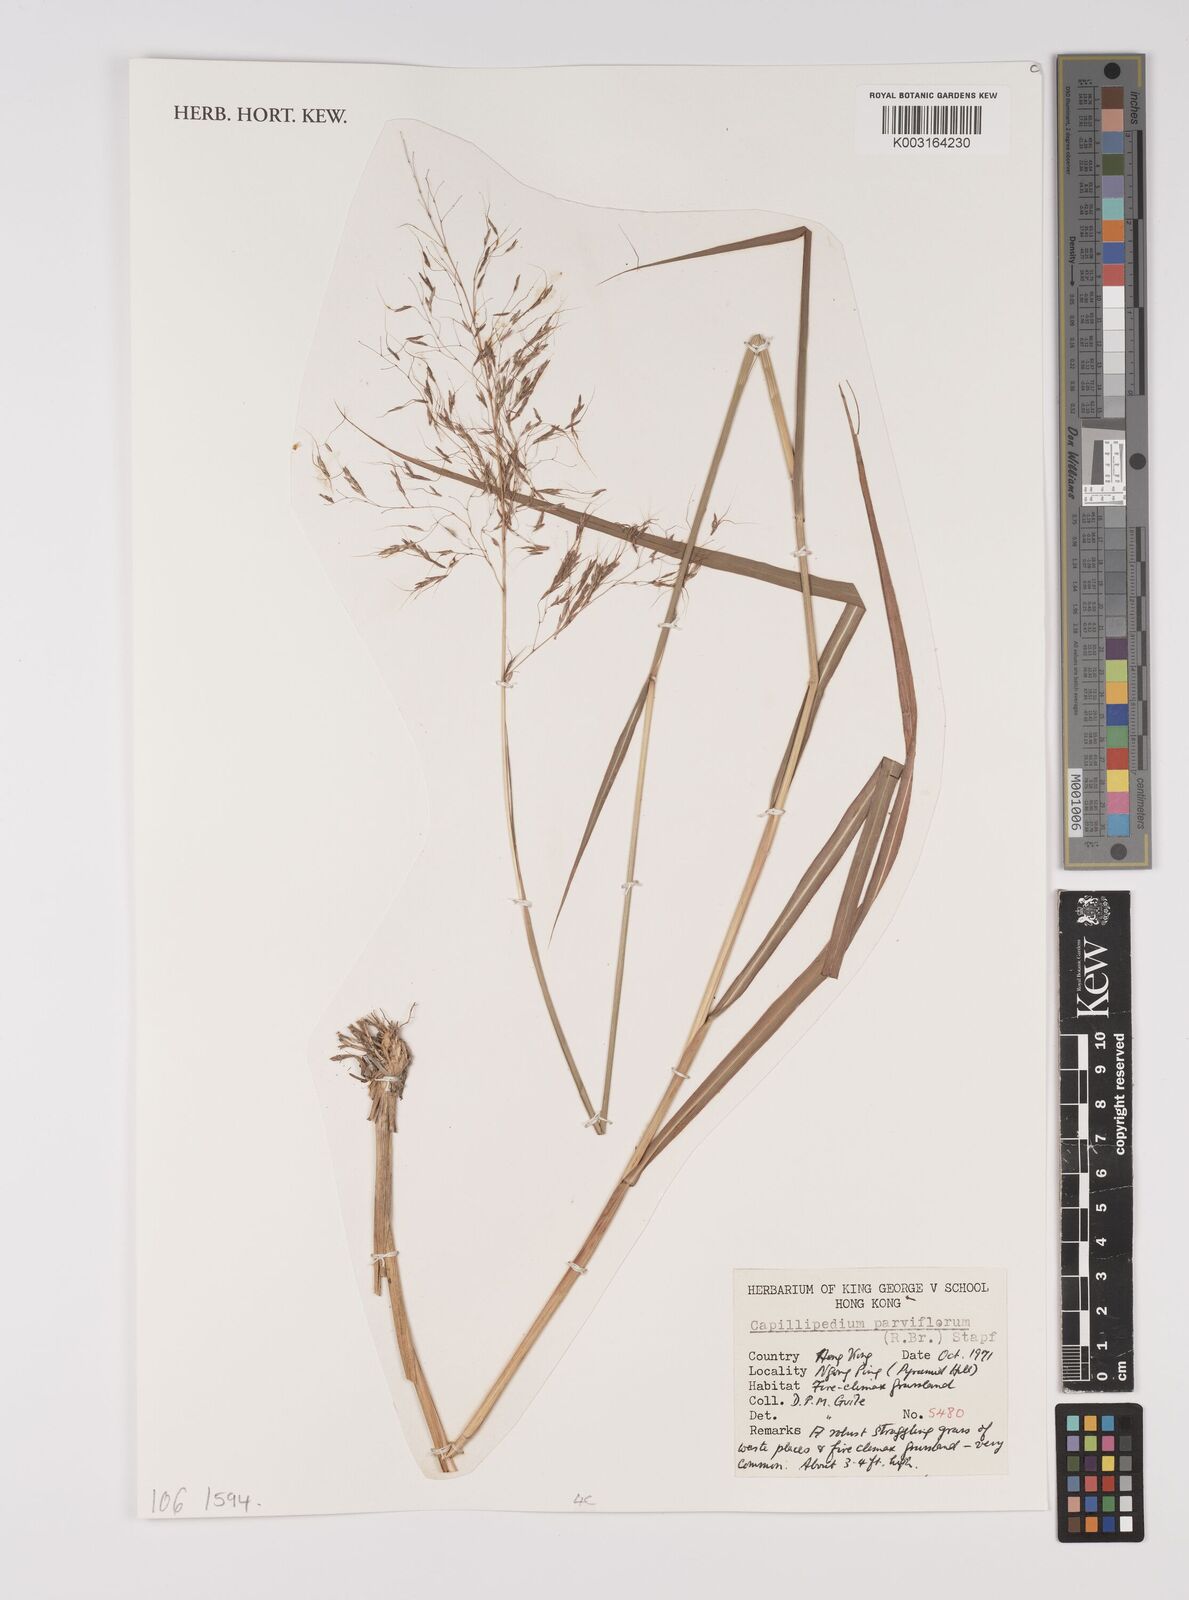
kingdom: Plantae
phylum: Tracheophyta
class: Liliopsida
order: Poales
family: Poaceae
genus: Capillipedium
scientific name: Capillipedium parviflorum
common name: Golden-beard
